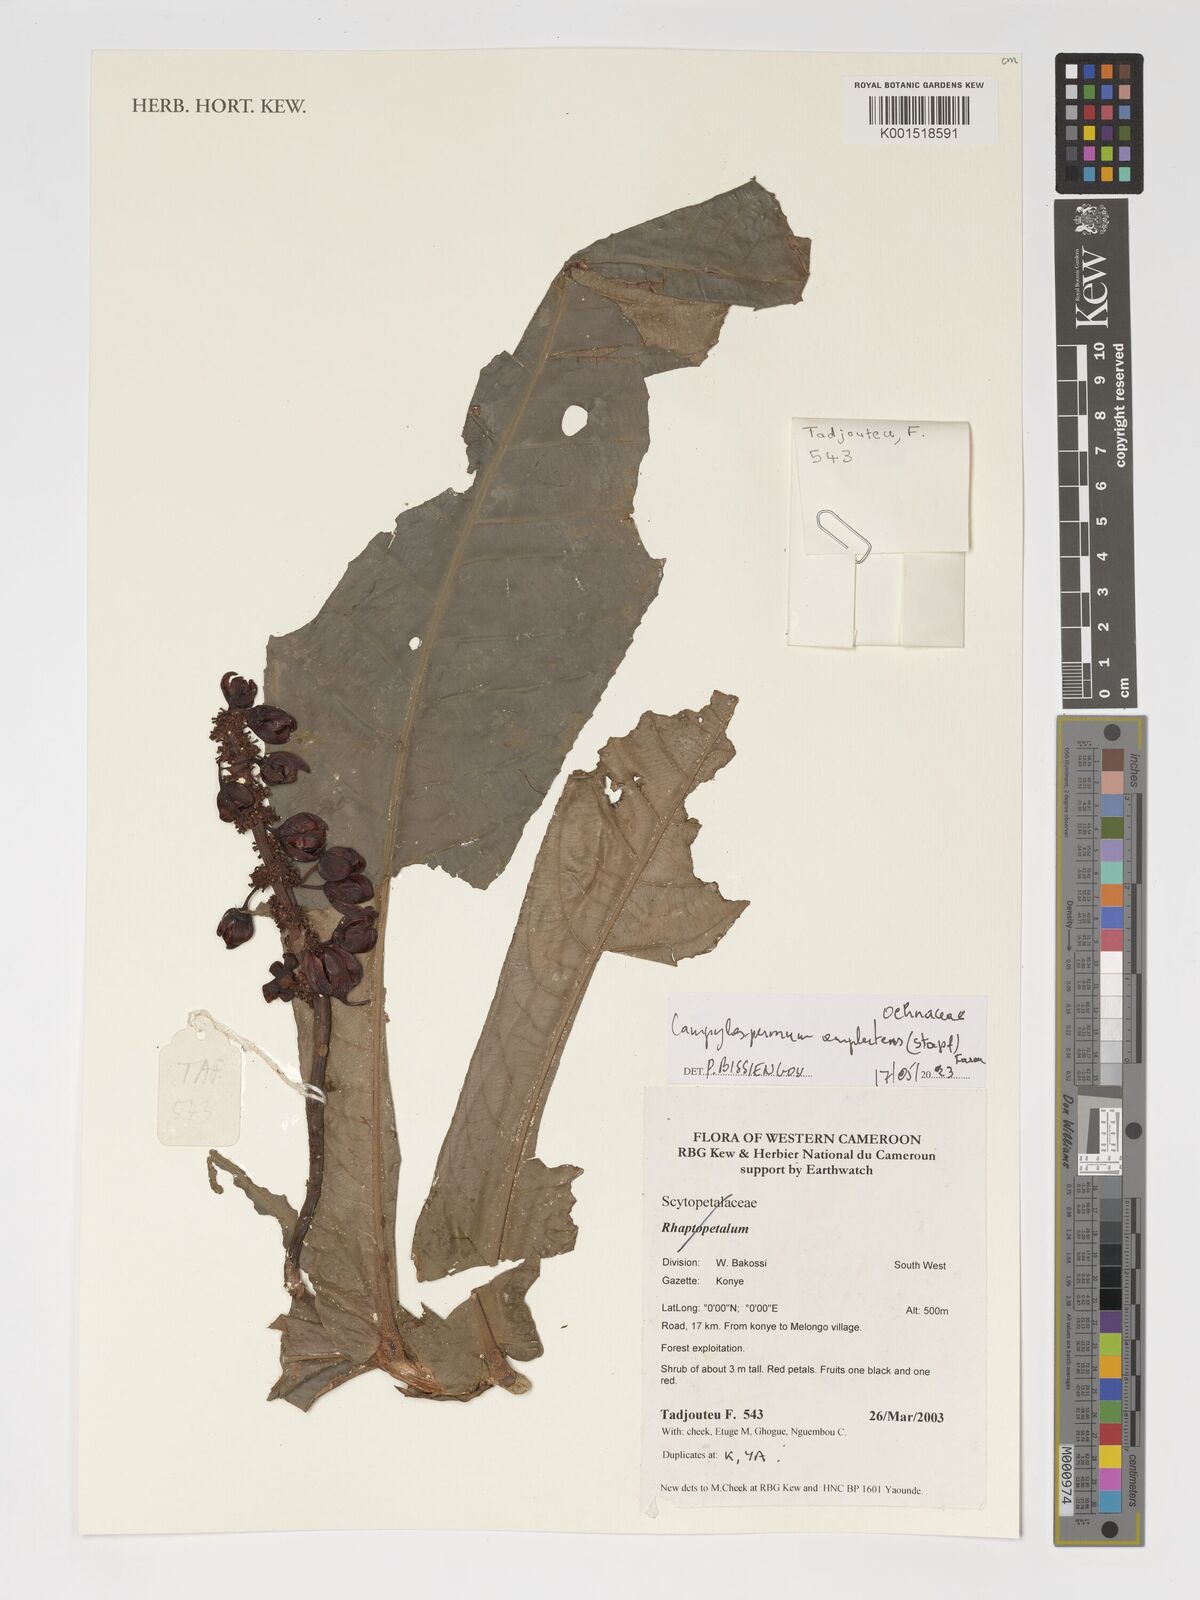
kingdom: Plantae
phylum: Tracheophyta
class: Magnoliopsida
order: Malpighiales
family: Ochnaceae
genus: Campylospermum
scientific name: Campylospermum amplectens
